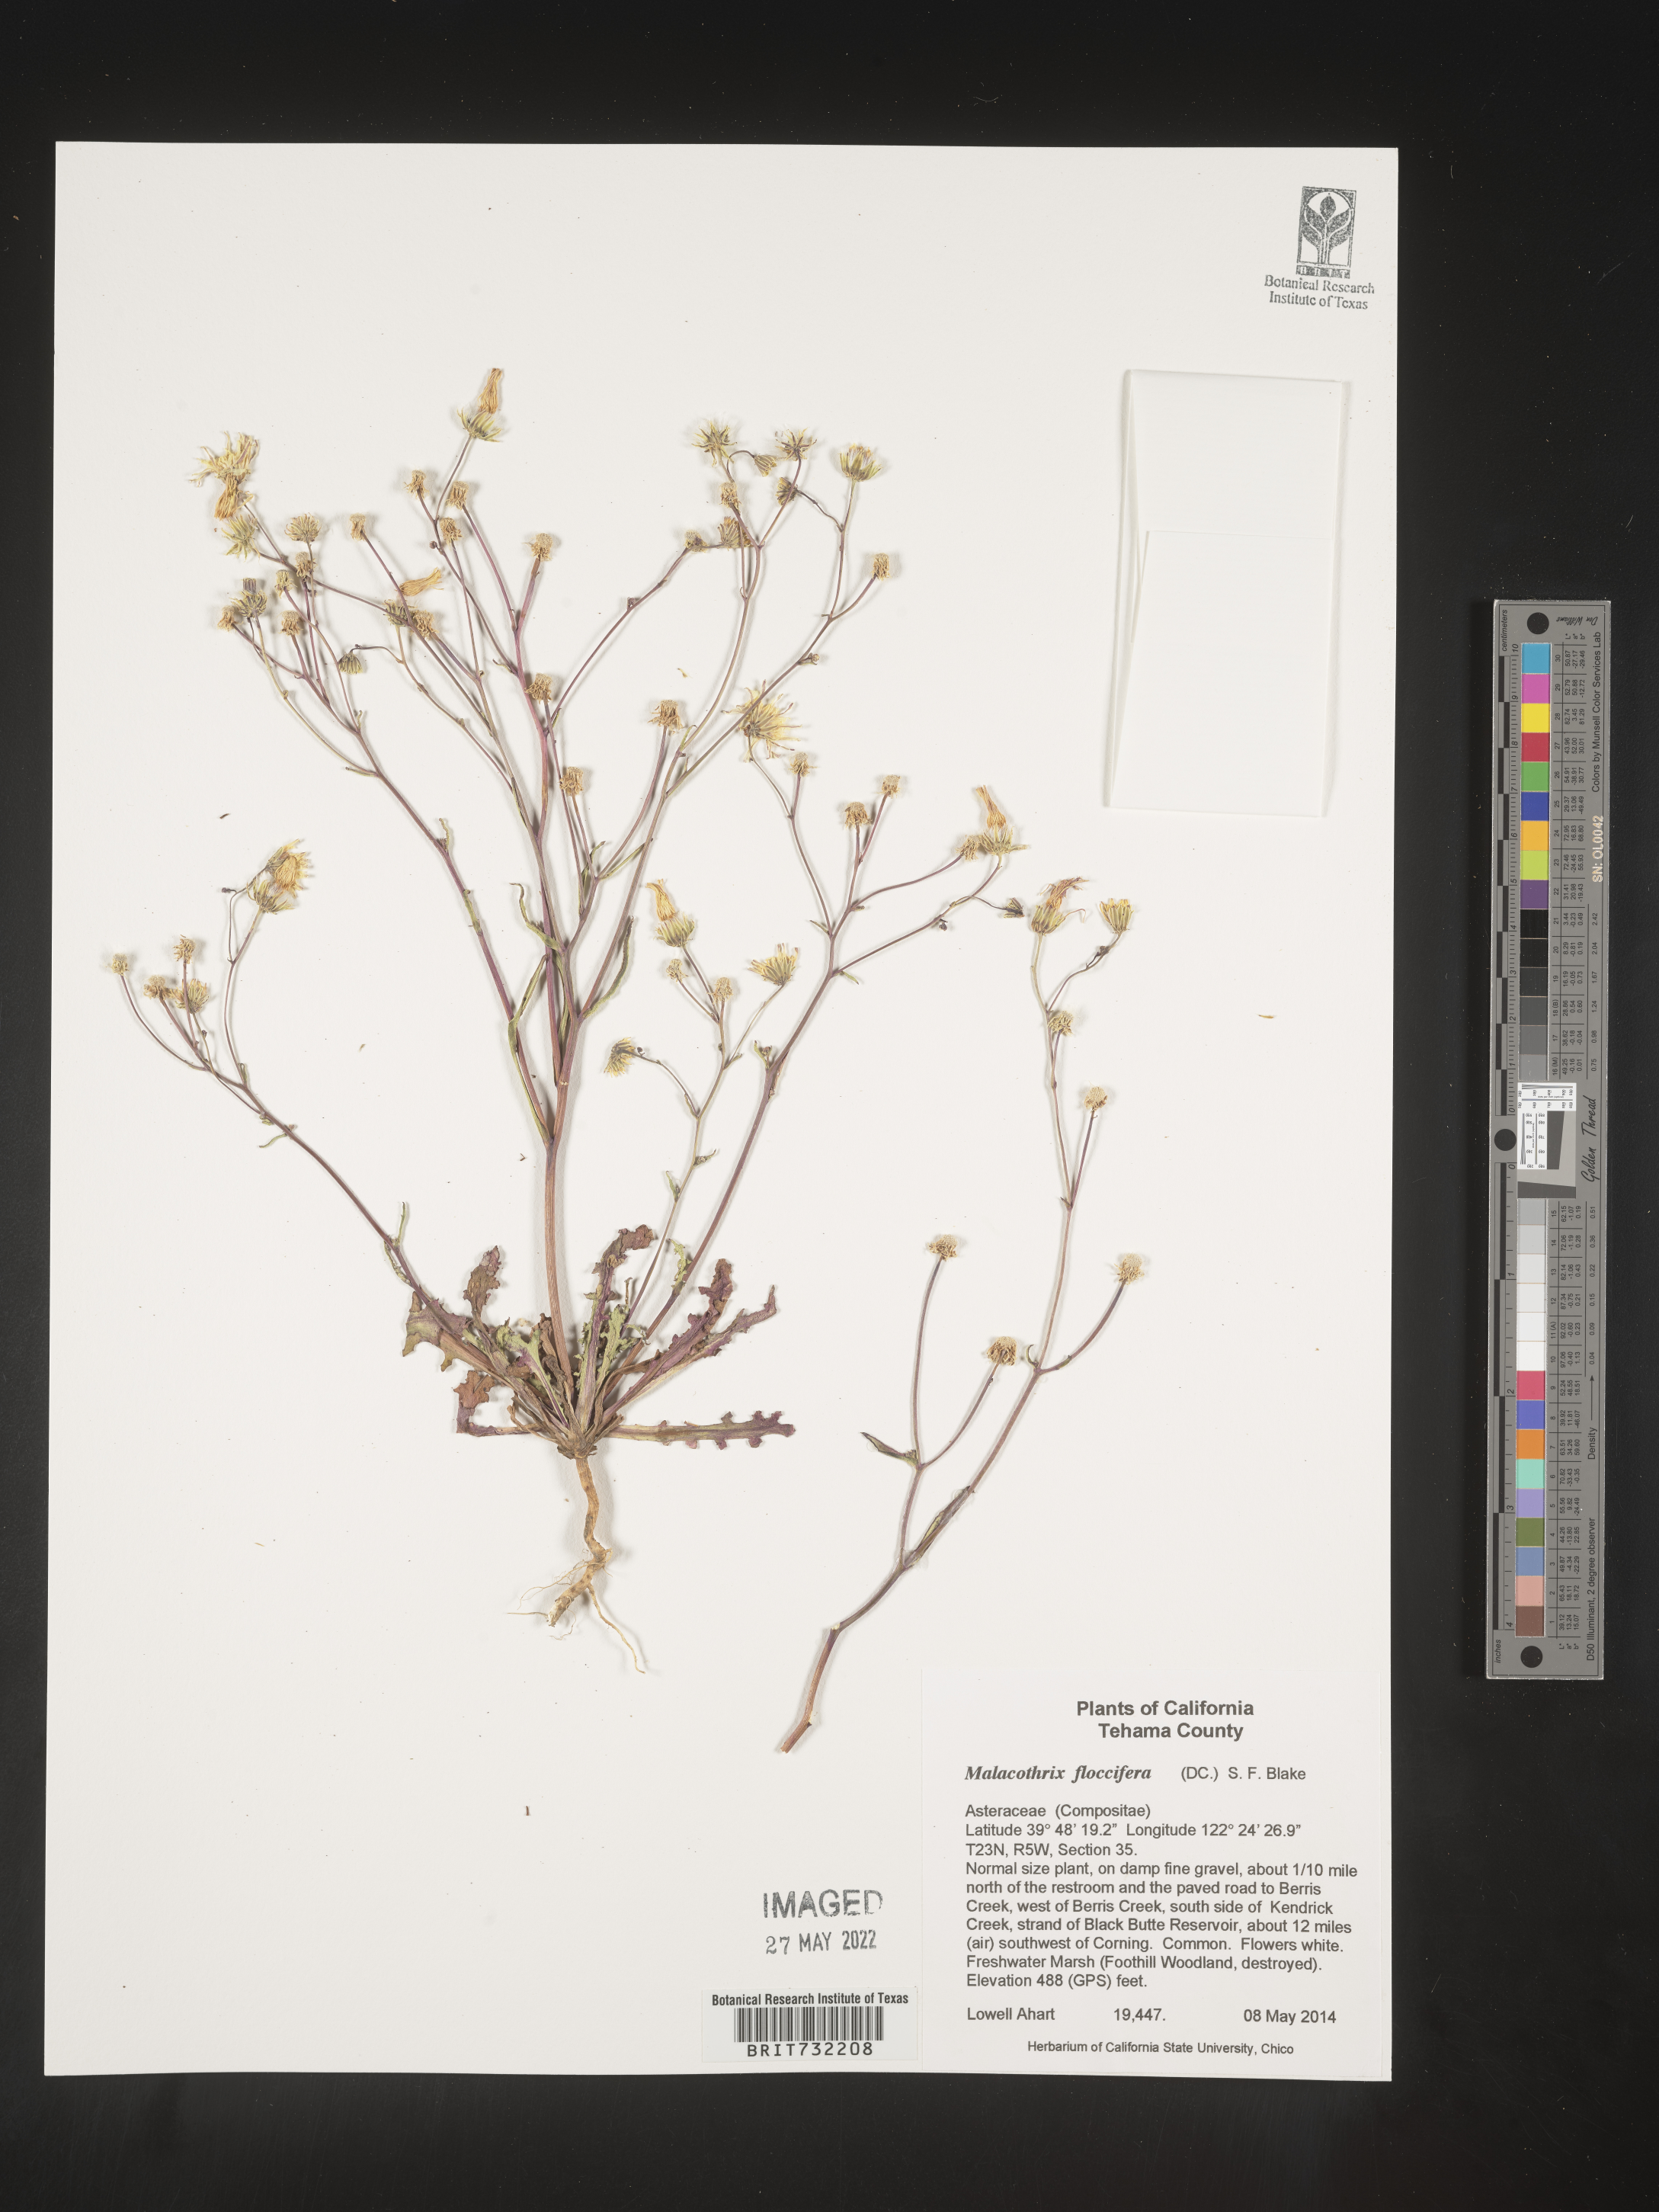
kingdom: Plantae
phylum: Tracheophyta
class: Magnoliopsida
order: Asterales
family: Asteraceae
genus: Malacothrix
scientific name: Malacothrix
